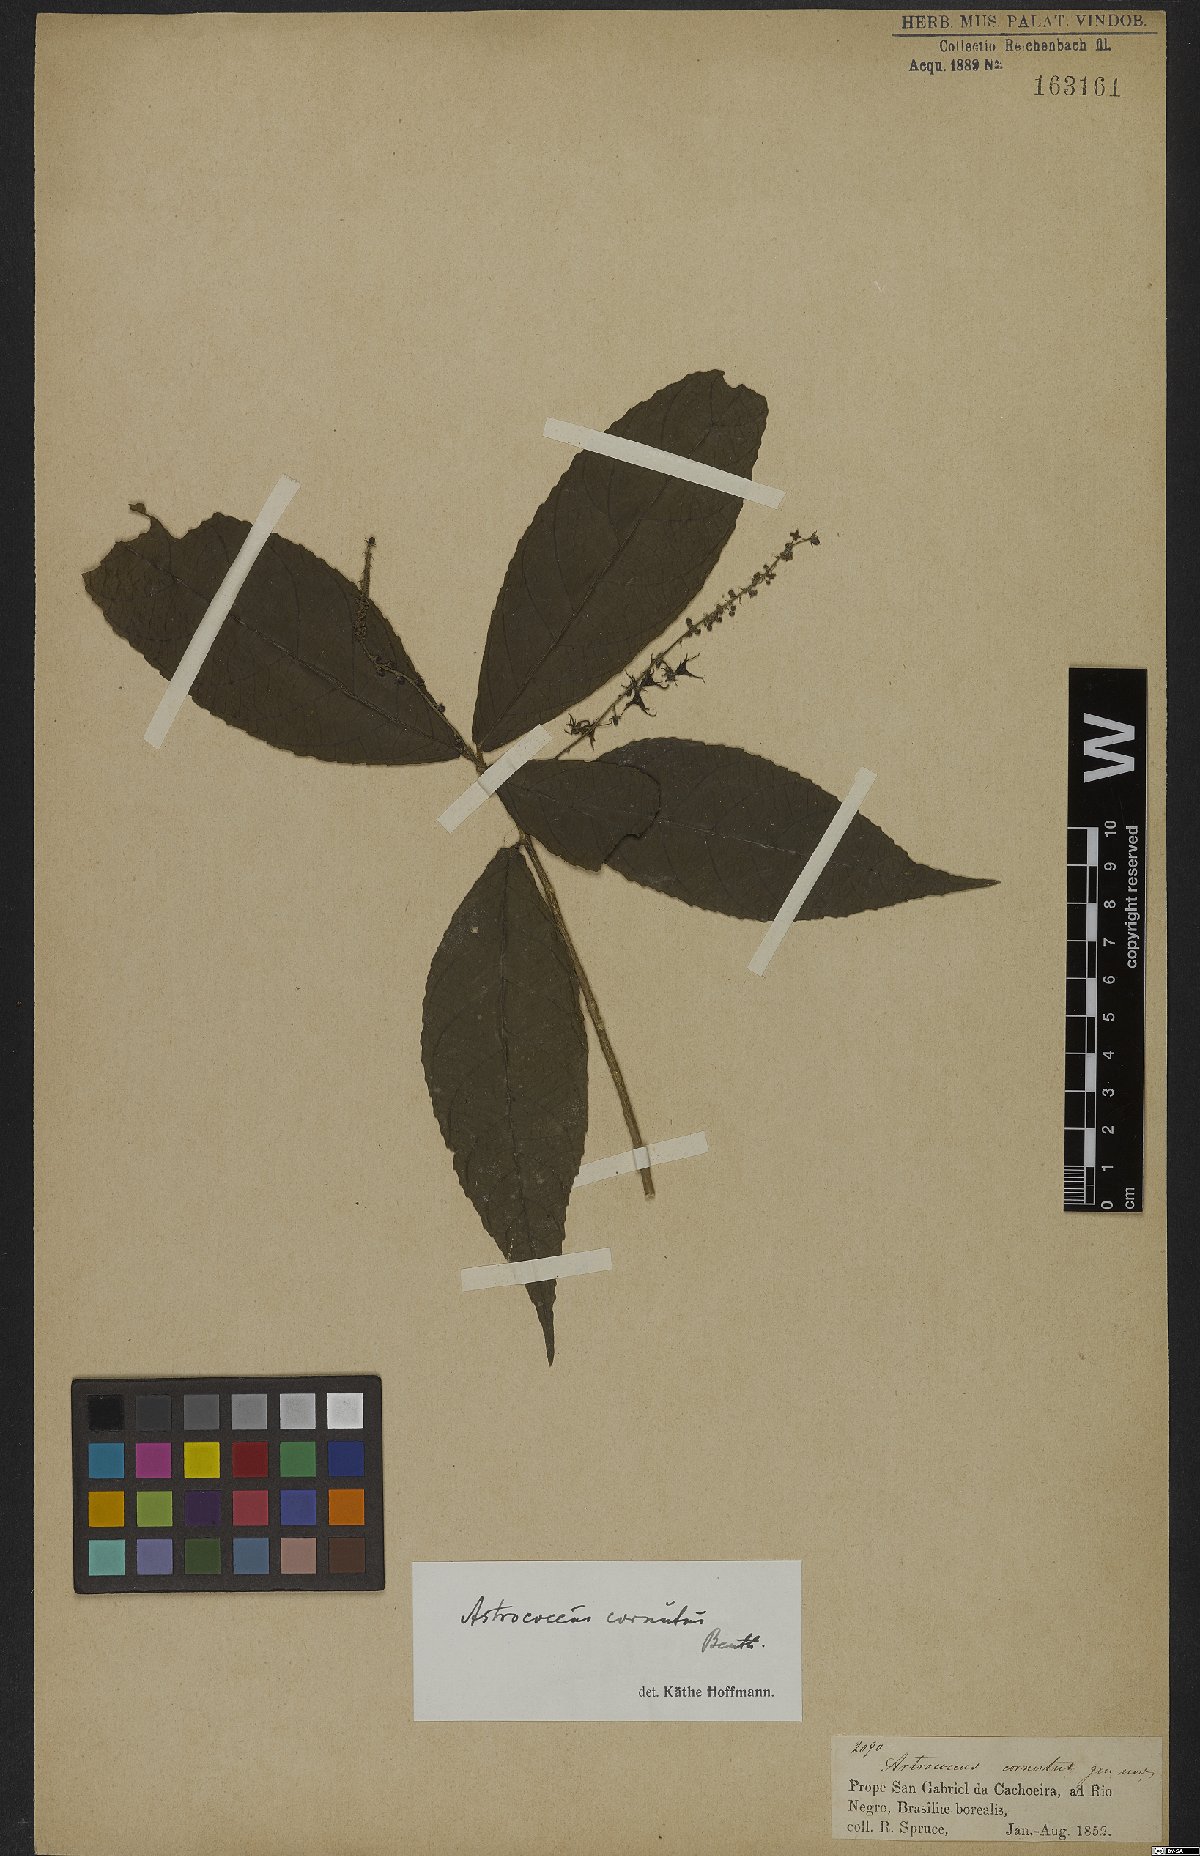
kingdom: Plantae
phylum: Tracheophyta
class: Magnoliopsida
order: Malpighiales
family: Euphorbiaceae
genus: Astrococcus
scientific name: Astrococcus cornutus
